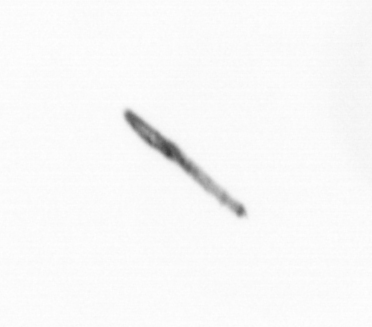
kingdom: Chromista
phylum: Ochrophyta
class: Bacillariophyceae
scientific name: Bacillariophyceae
